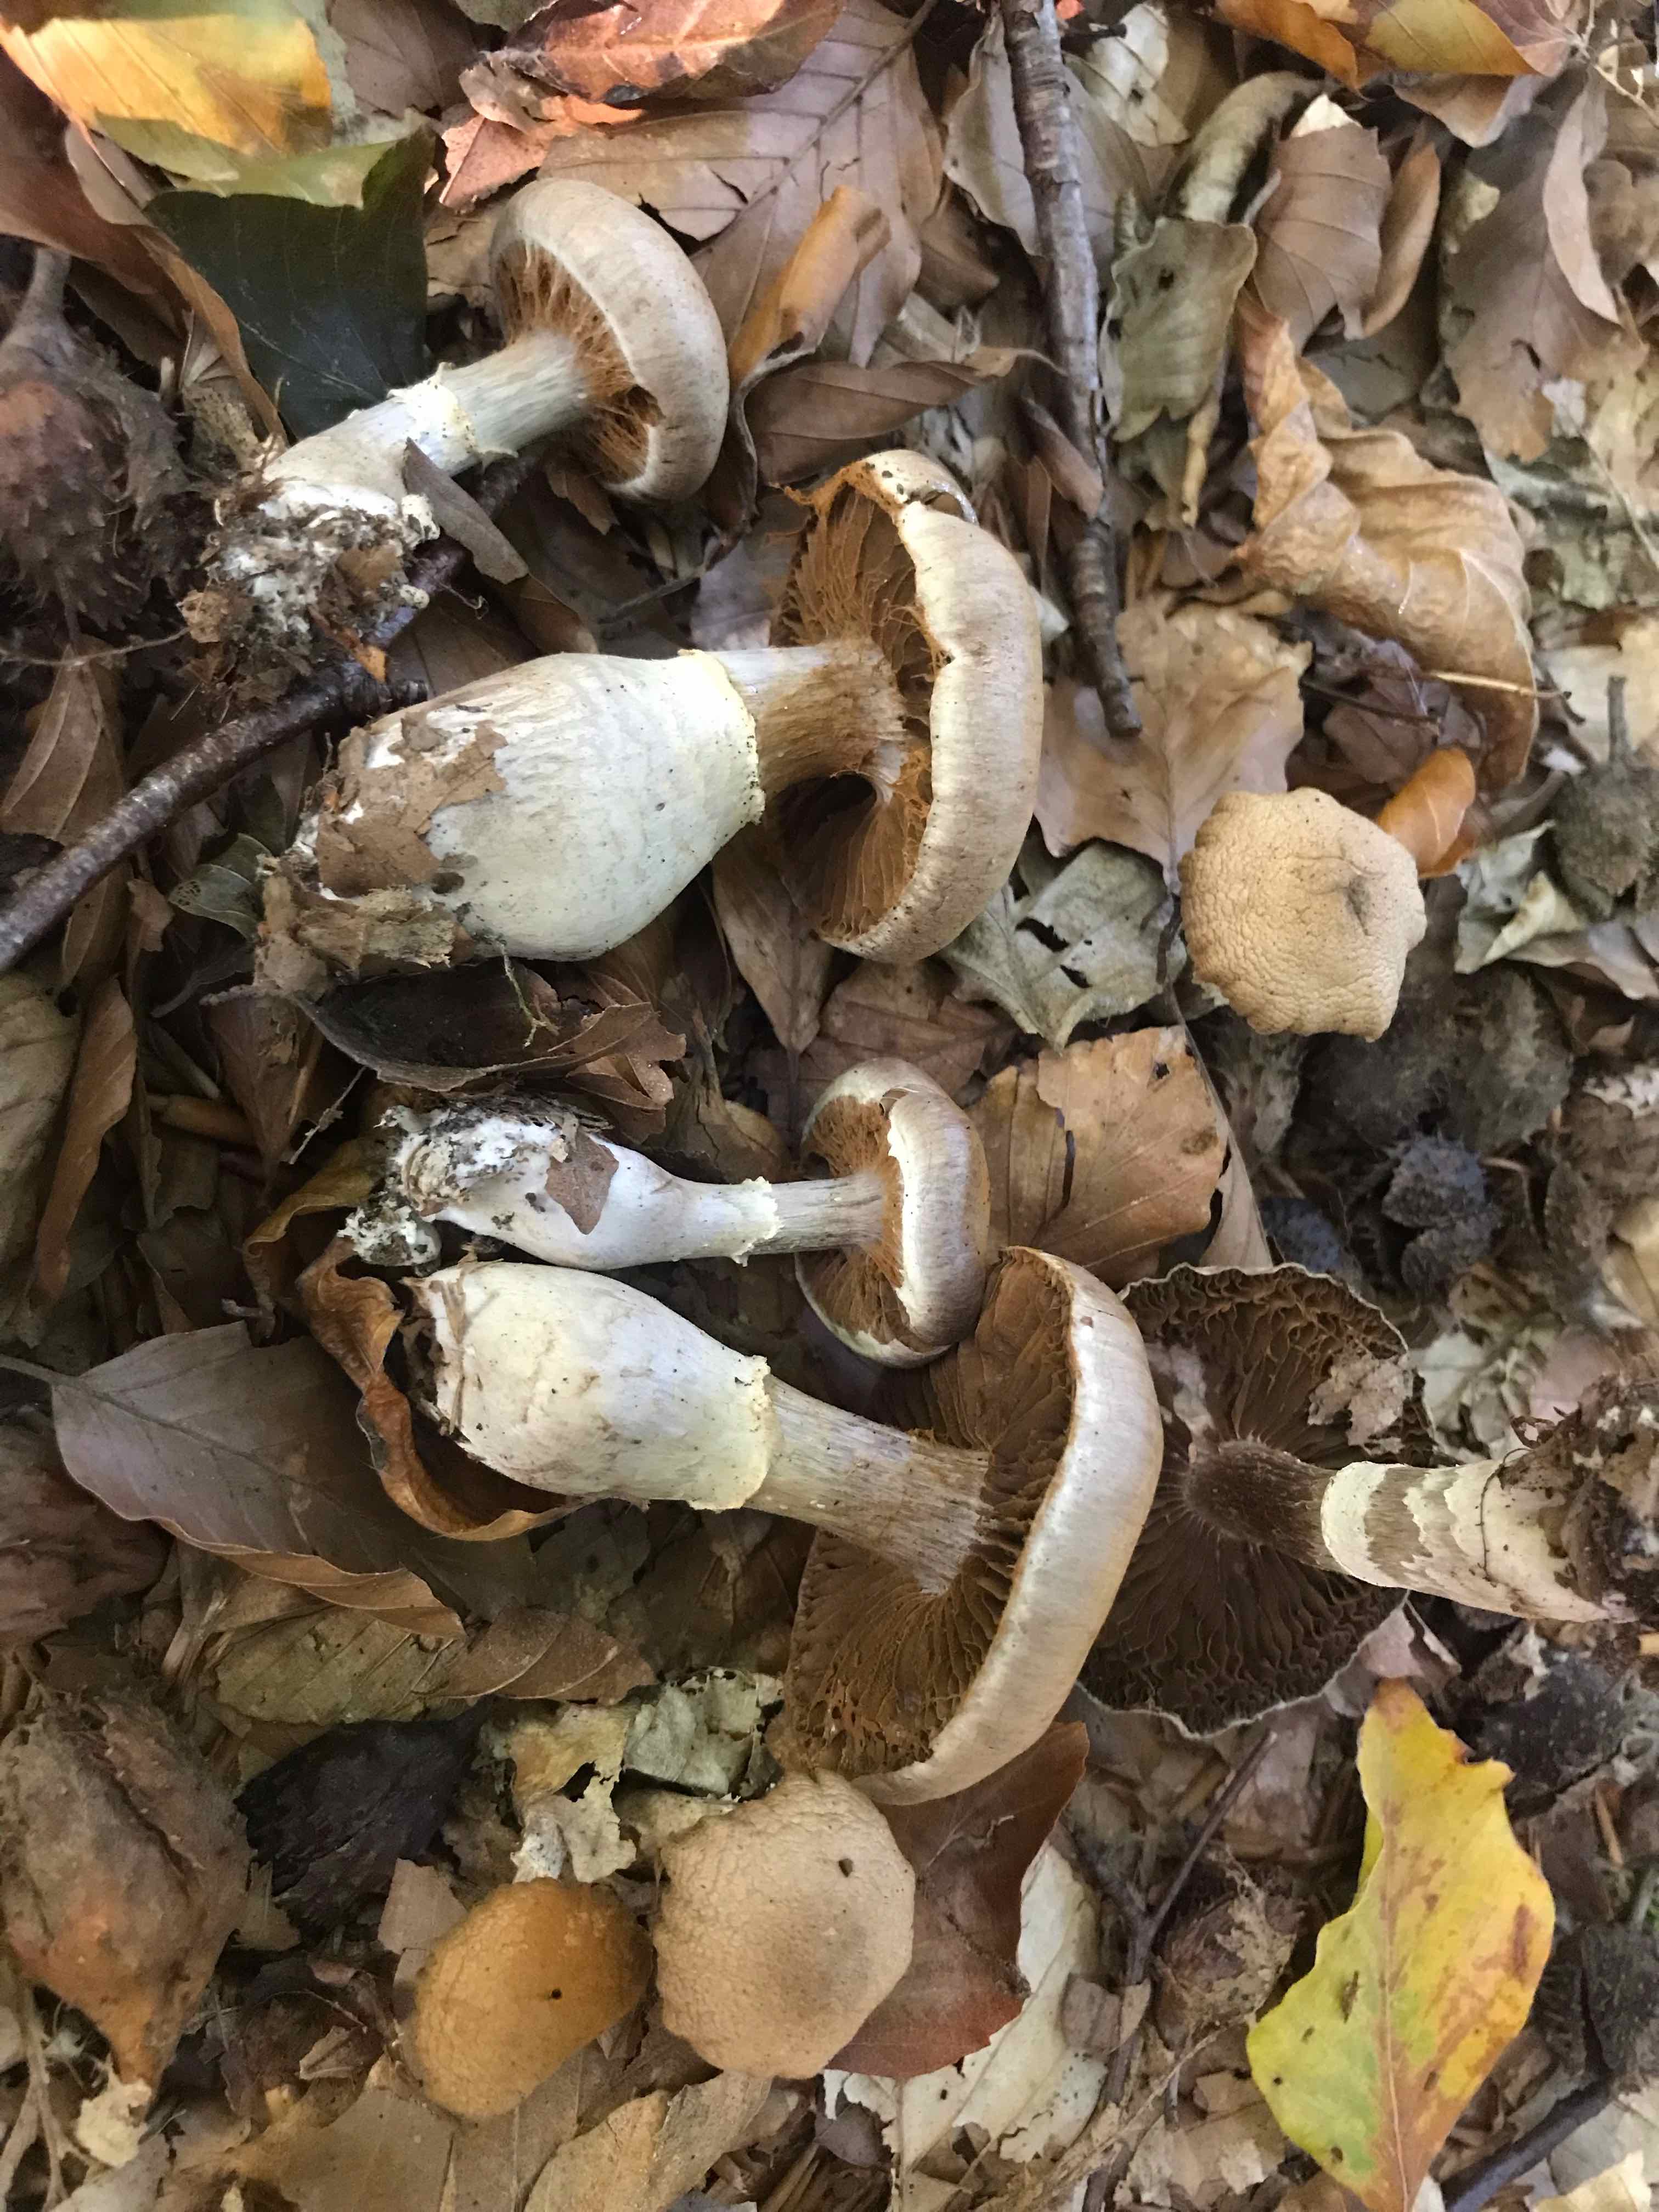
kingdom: Fungi
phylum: Basidiomycota
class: Agaricomycetes
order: Agaricales
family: Cortinariaceae
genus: Cortinarius
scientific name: Cortinarius torvus
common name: champignonagtig slørhat
